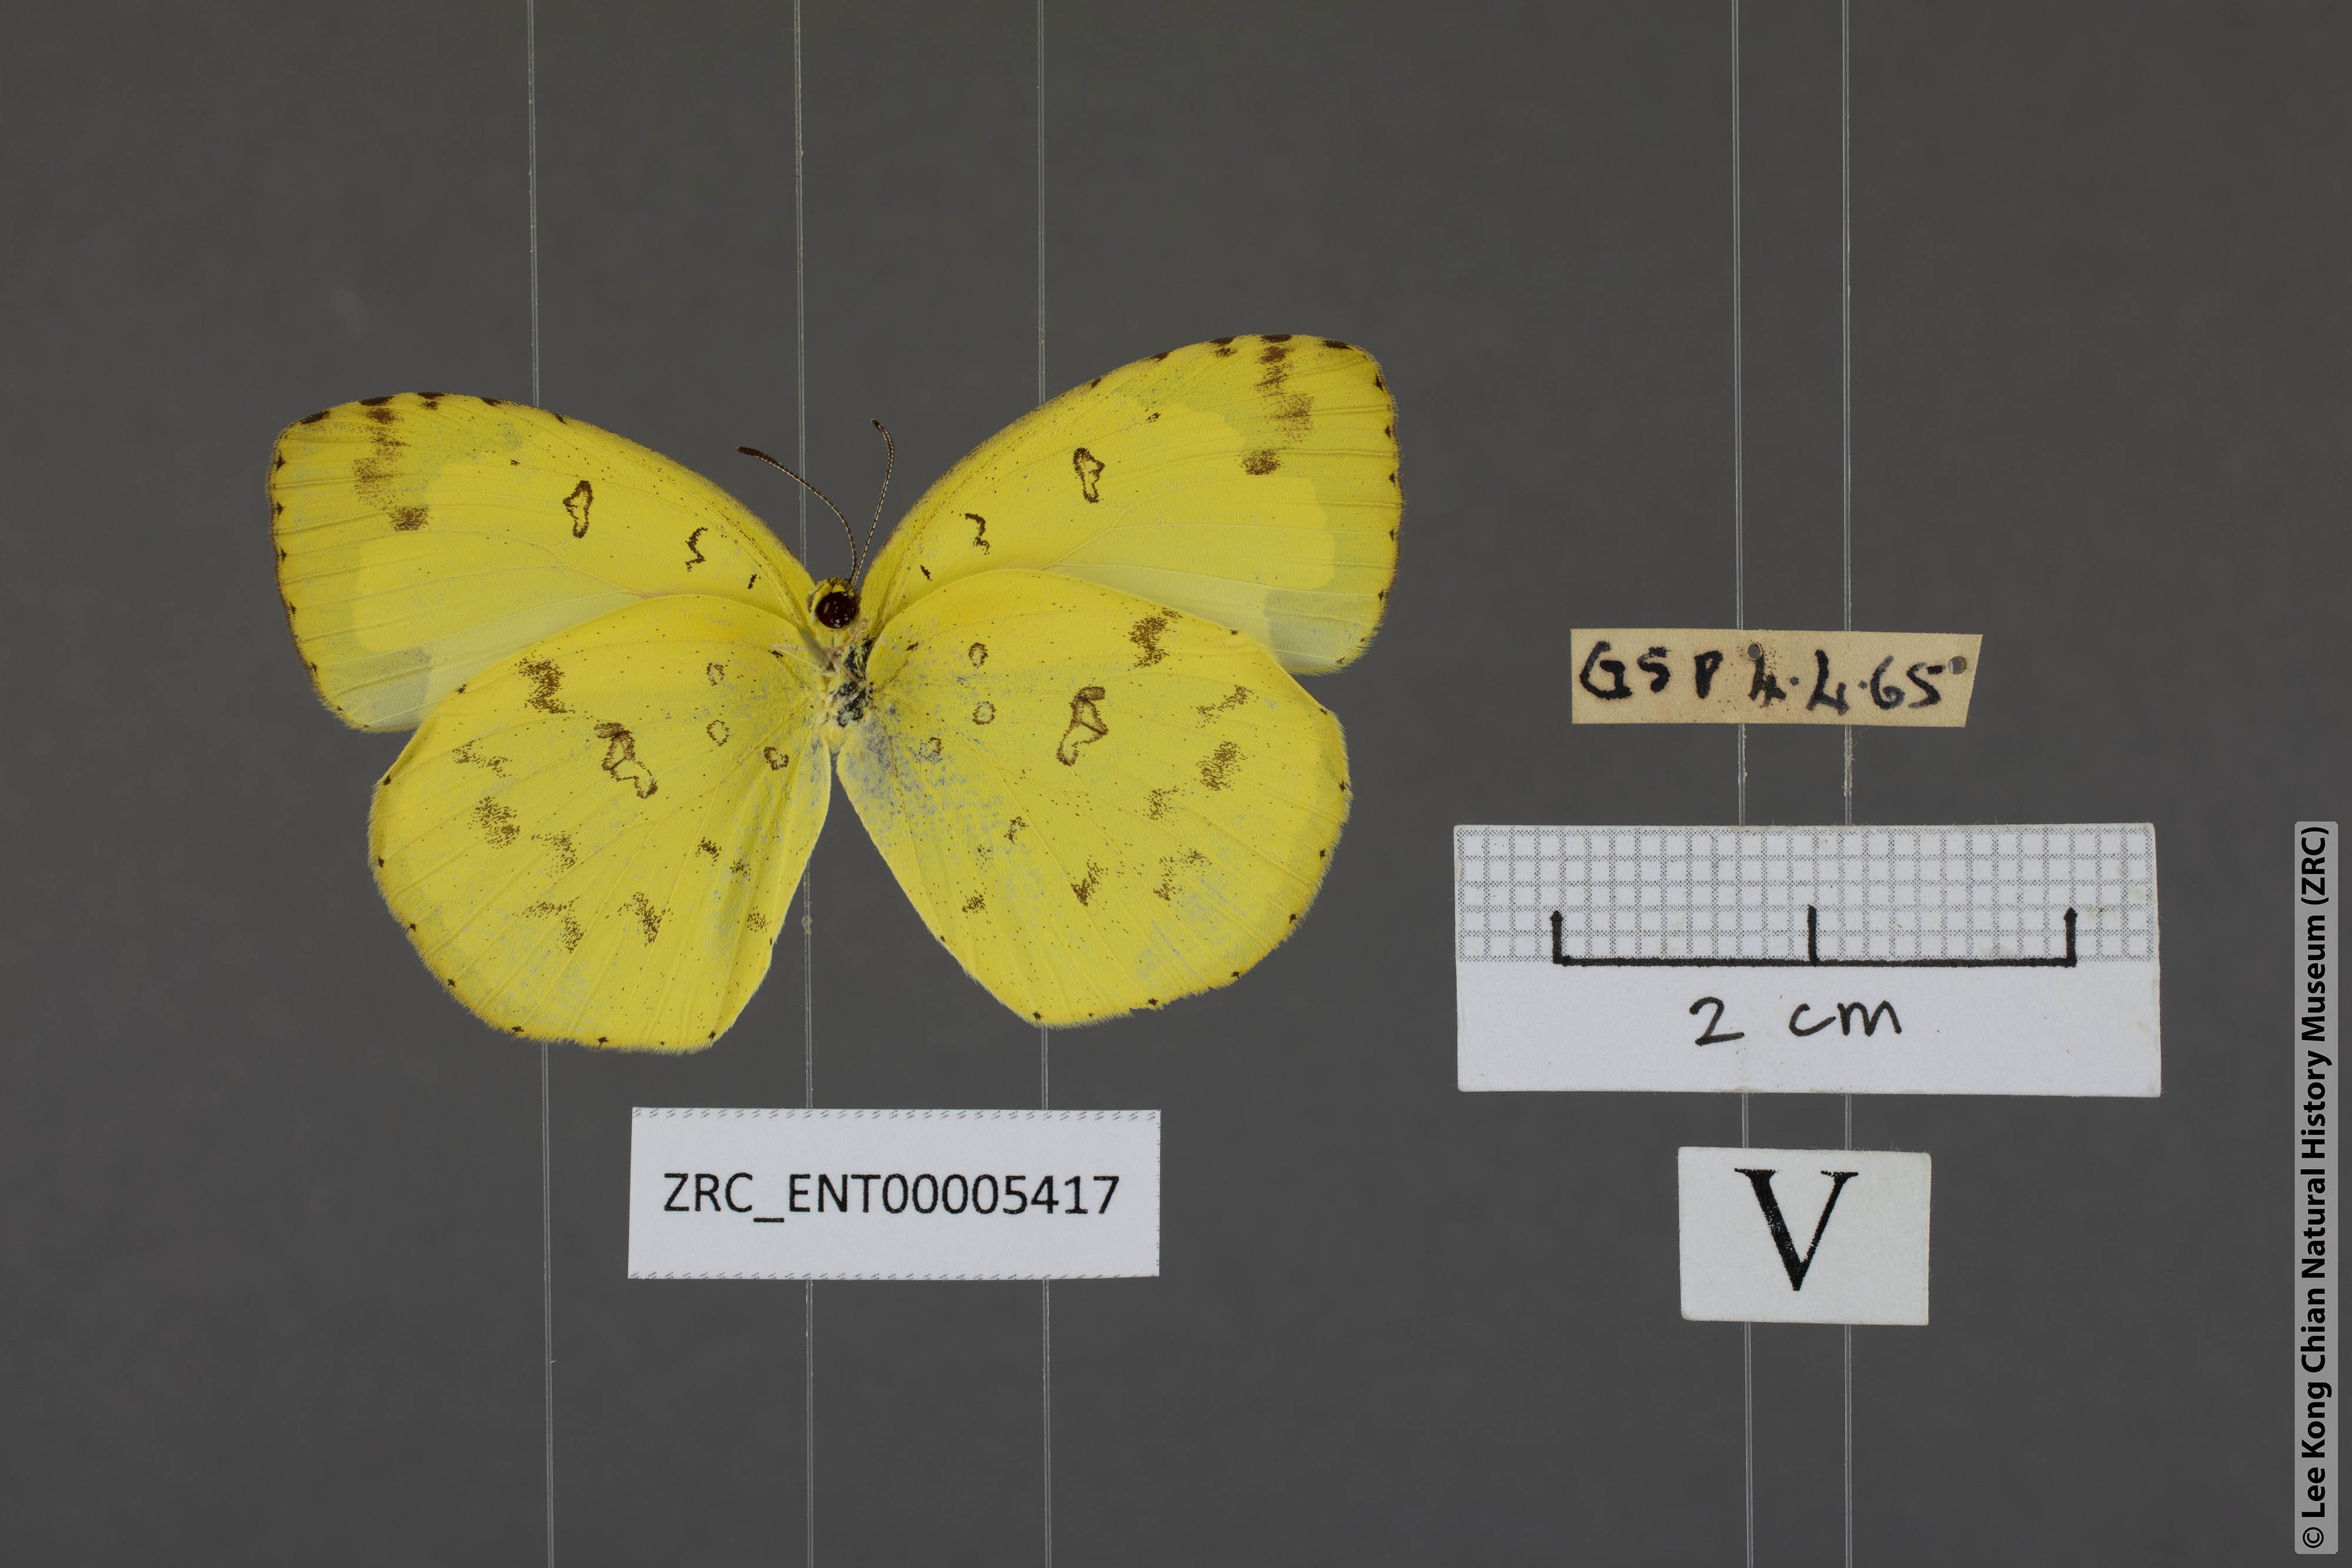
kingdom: Animalia
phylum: Arthropoda
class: Insecta
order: Lepidoptera
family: Pieridae
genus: Eurema
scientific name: Eurema andersoni
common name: One-spot yellow grass
